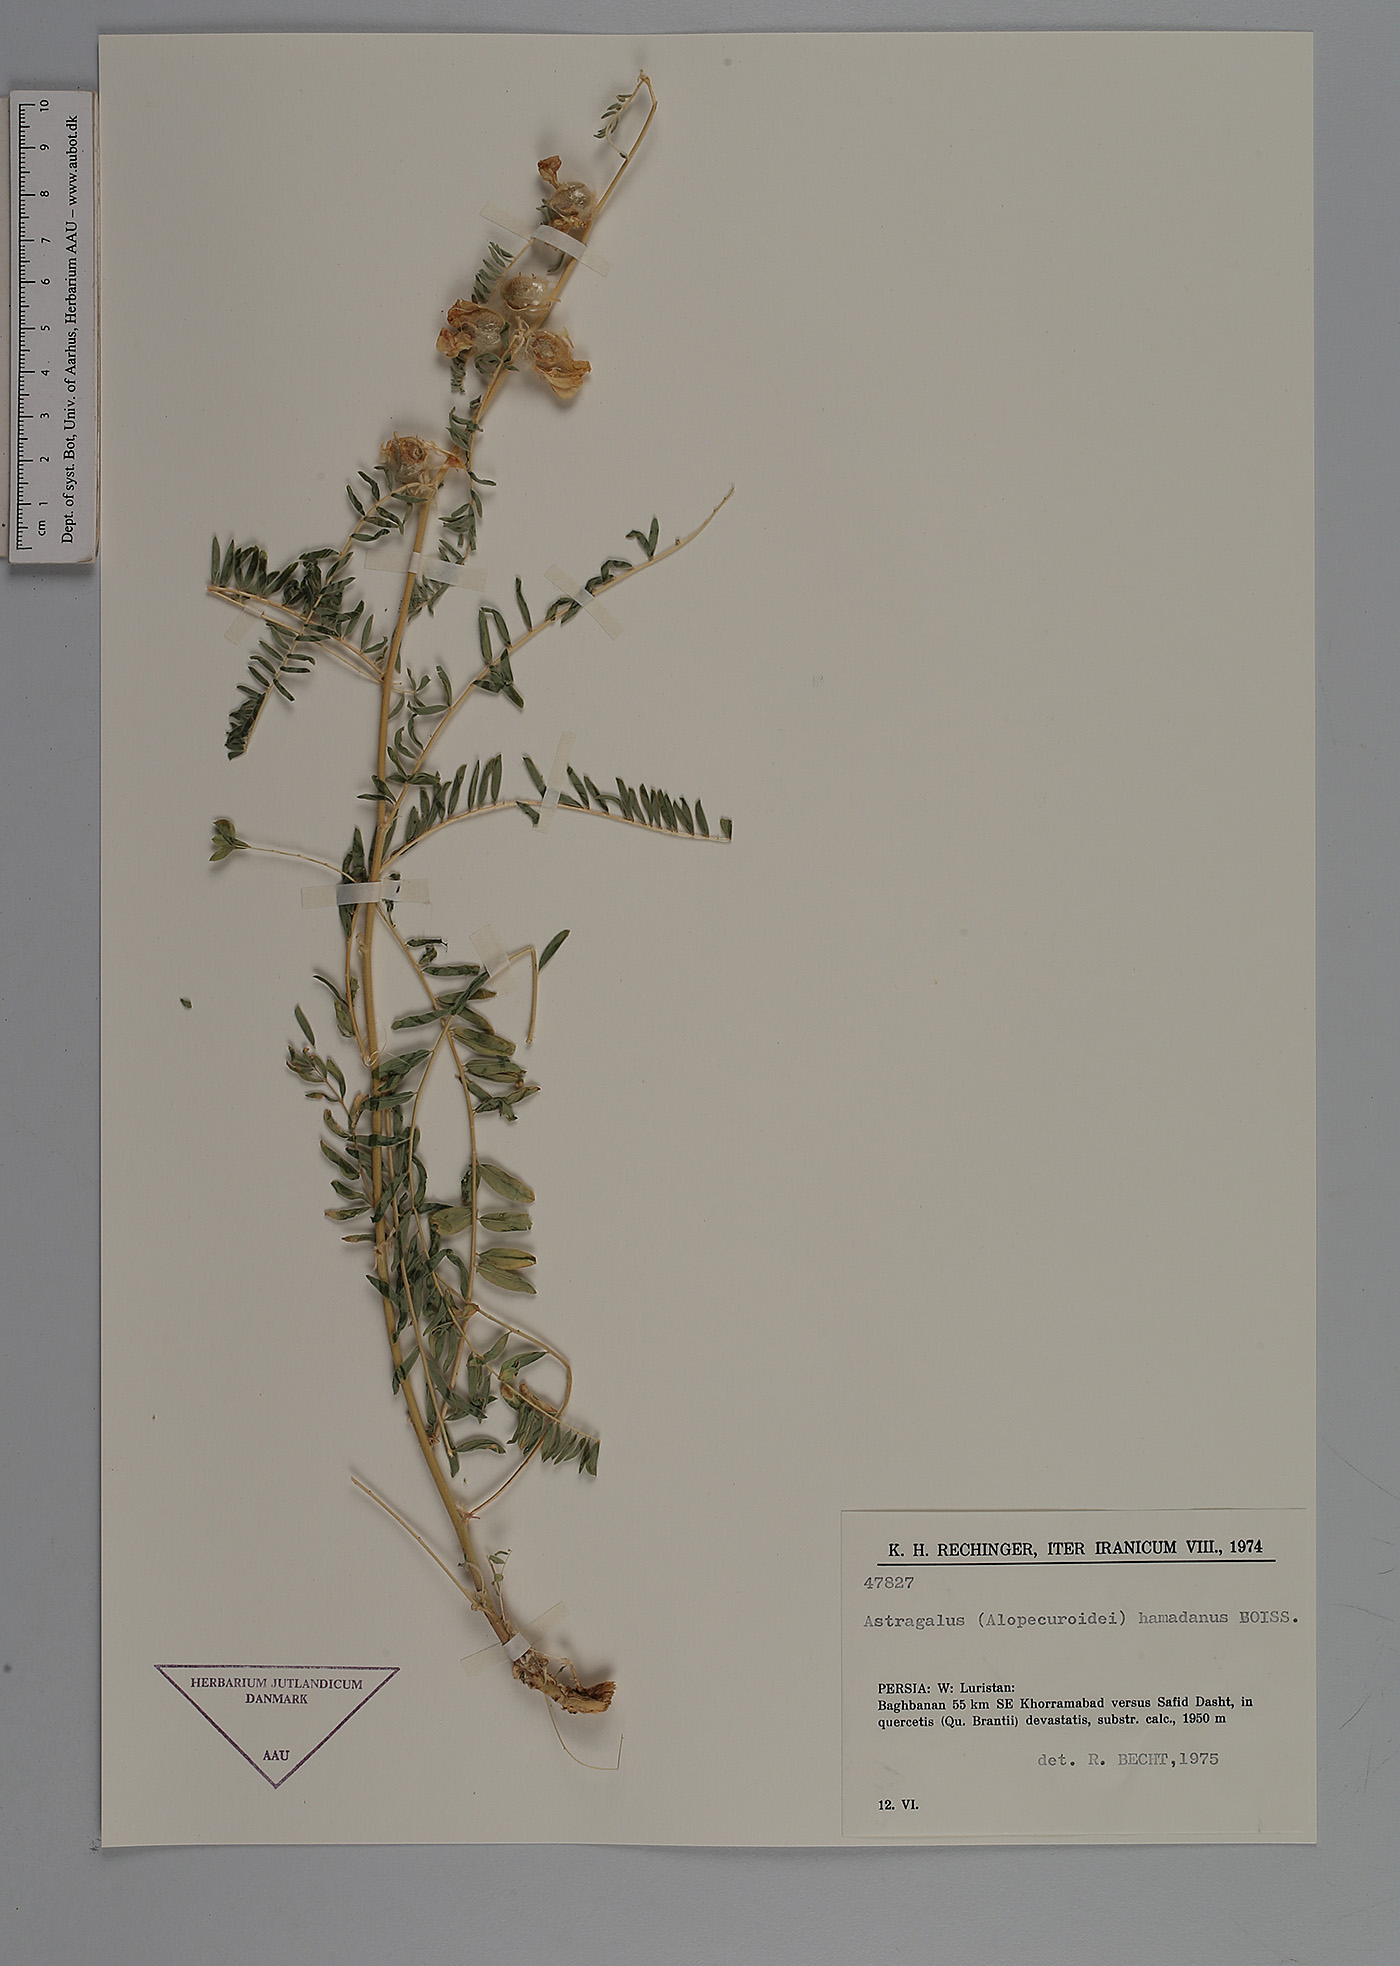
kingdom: Plantae
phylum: Tracheophyta
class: Magnoliopsida
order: Fabales
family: Fabaceae
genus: Astragalus
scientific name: Astragalus hamadanus
